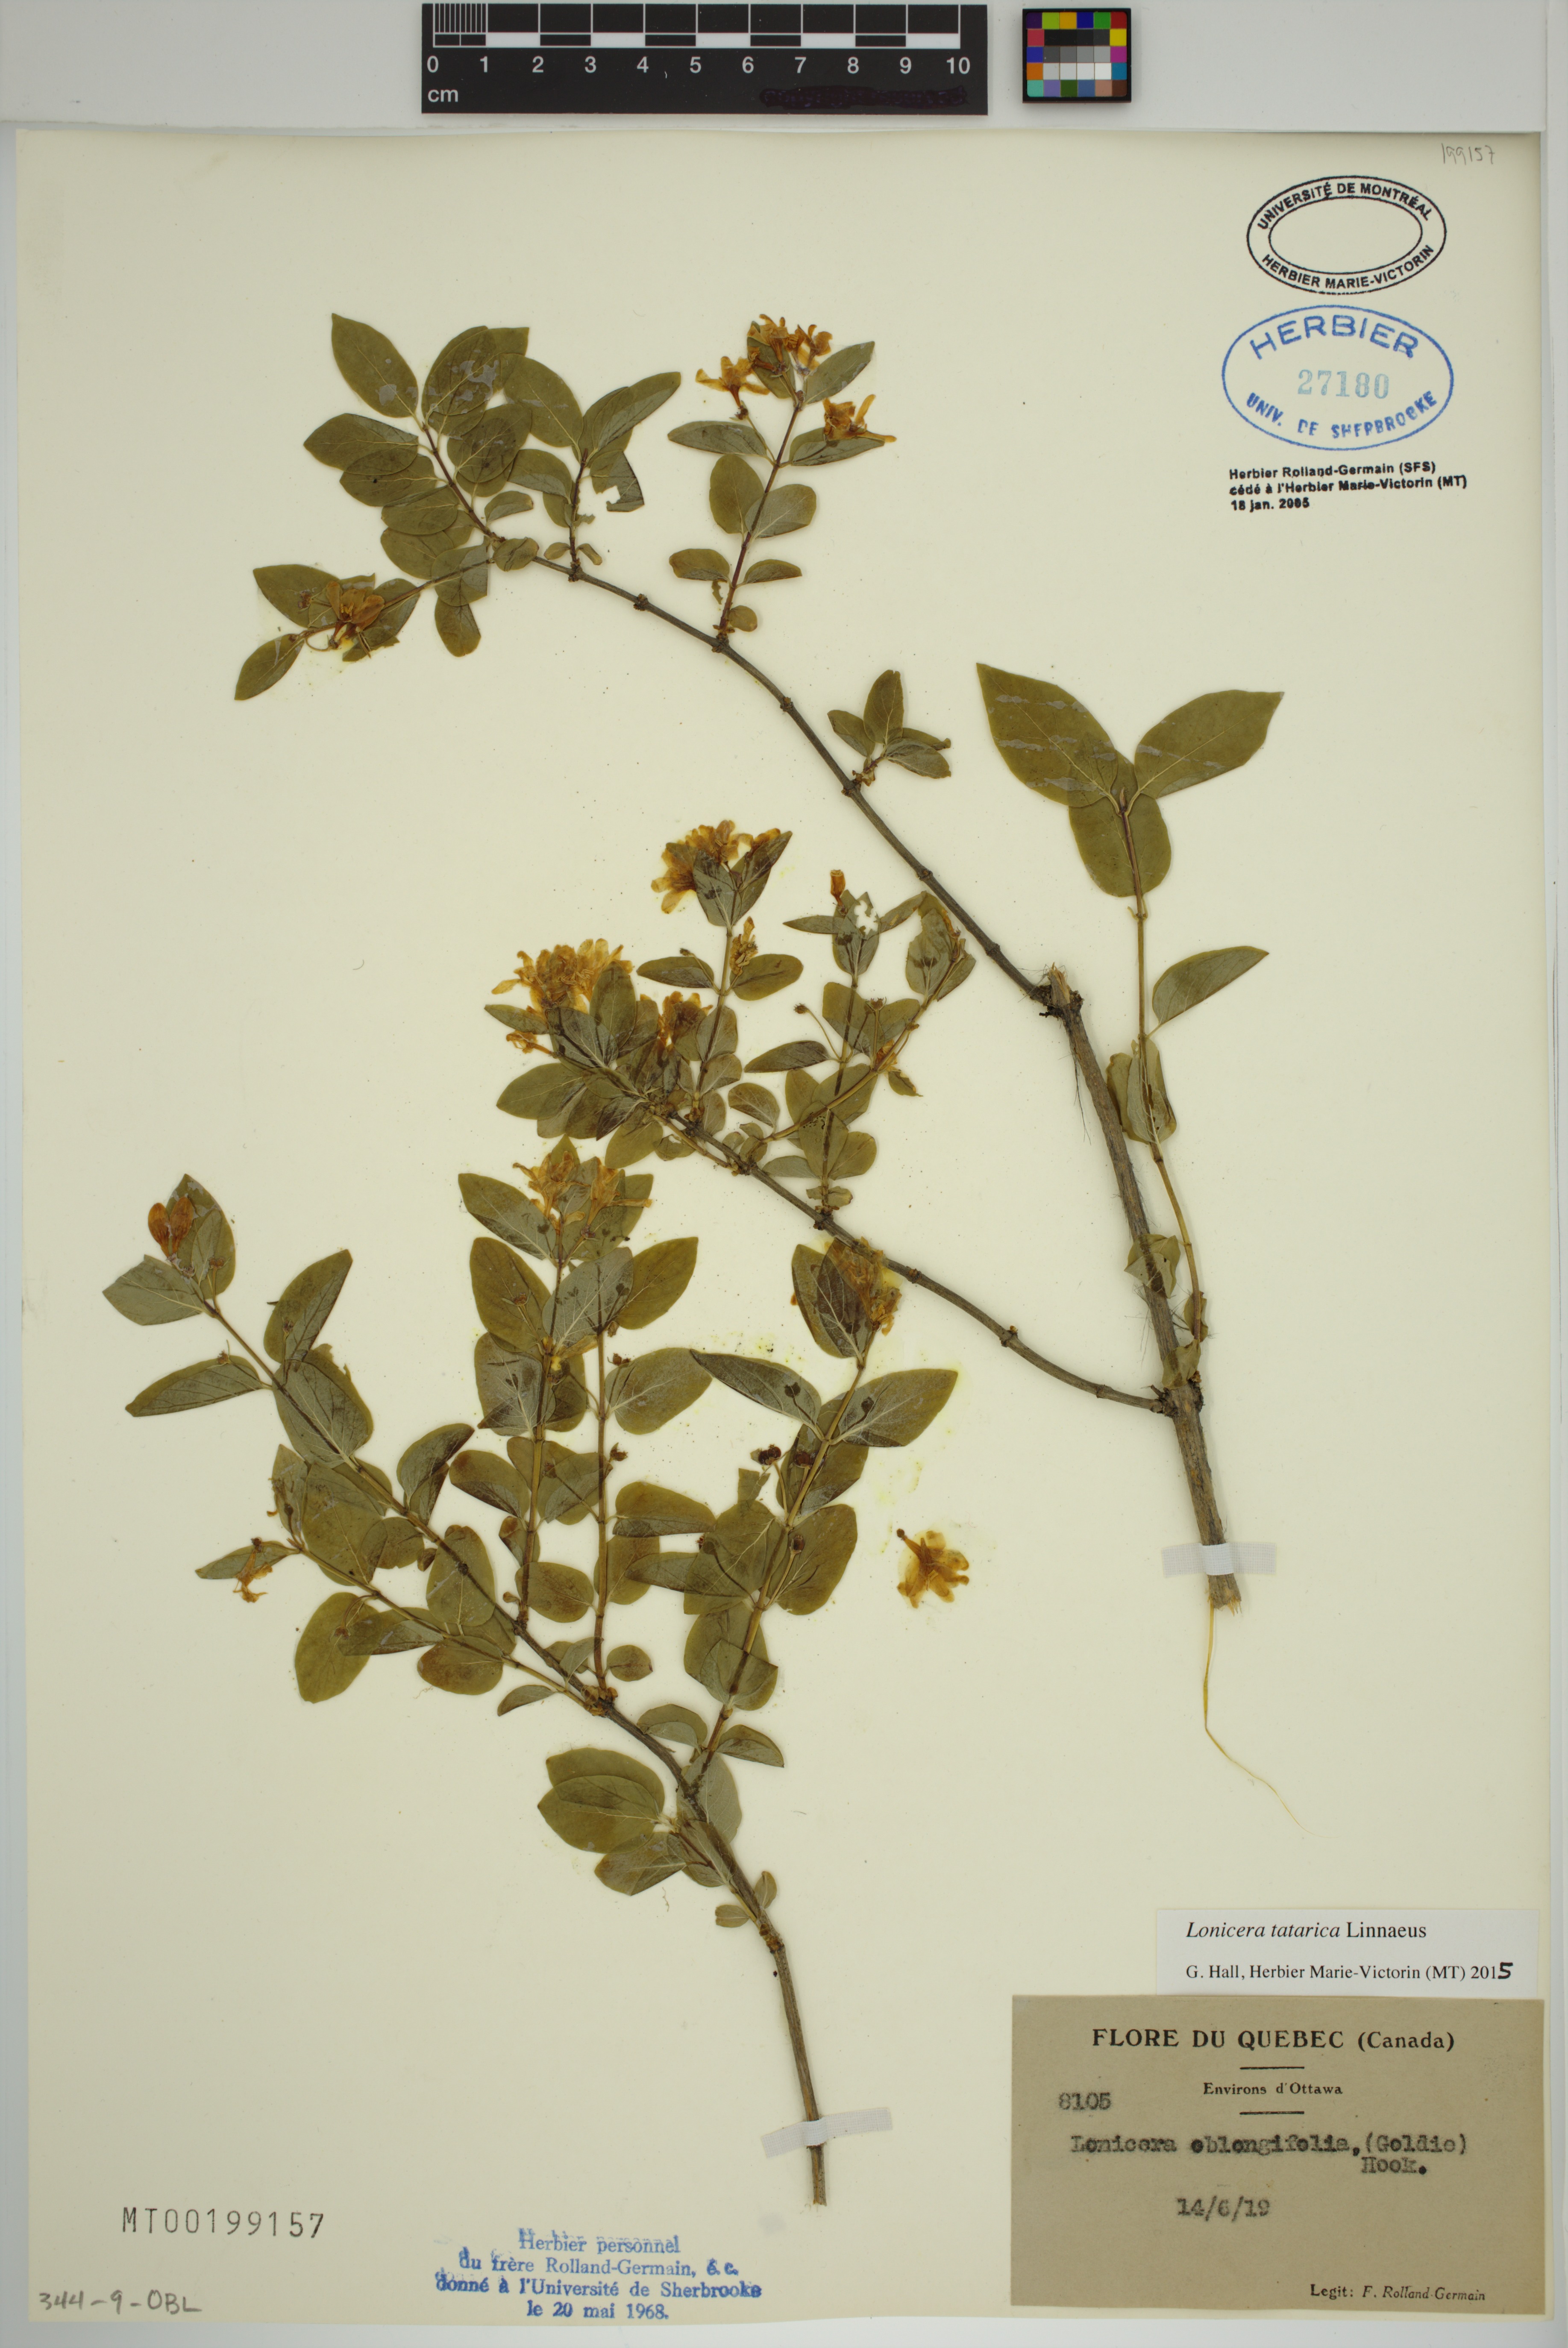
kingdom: Plantae
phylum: Tracheophyta
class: Magnoliopsida
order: Dipsacales
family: Caprifoliaceae
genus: Lonicera
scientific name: Lonicera tatarica
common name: Tatarian honeysuckle
